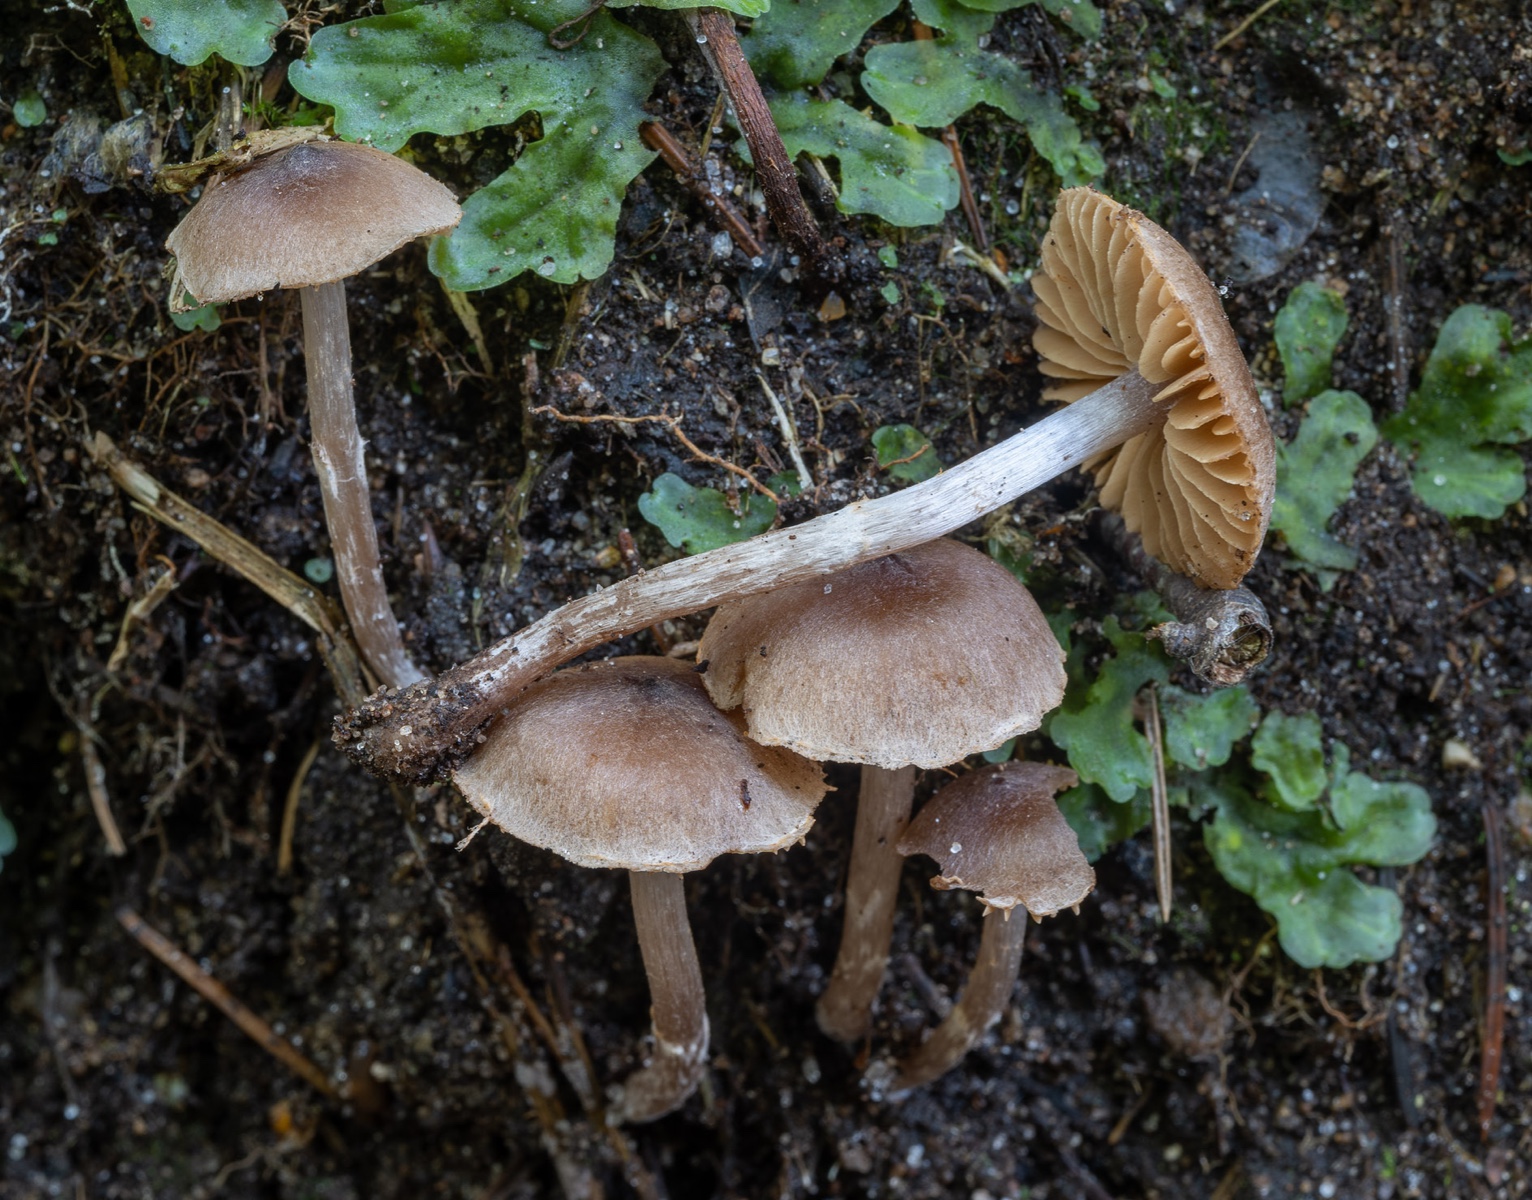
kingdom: Fungi
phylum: Basidiomycota
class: Agaricomycetes
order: Agaricales
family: Cortinariaceae
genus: Cortinarius
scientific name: Cortinarius decipiens
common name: blåsort slørhat
